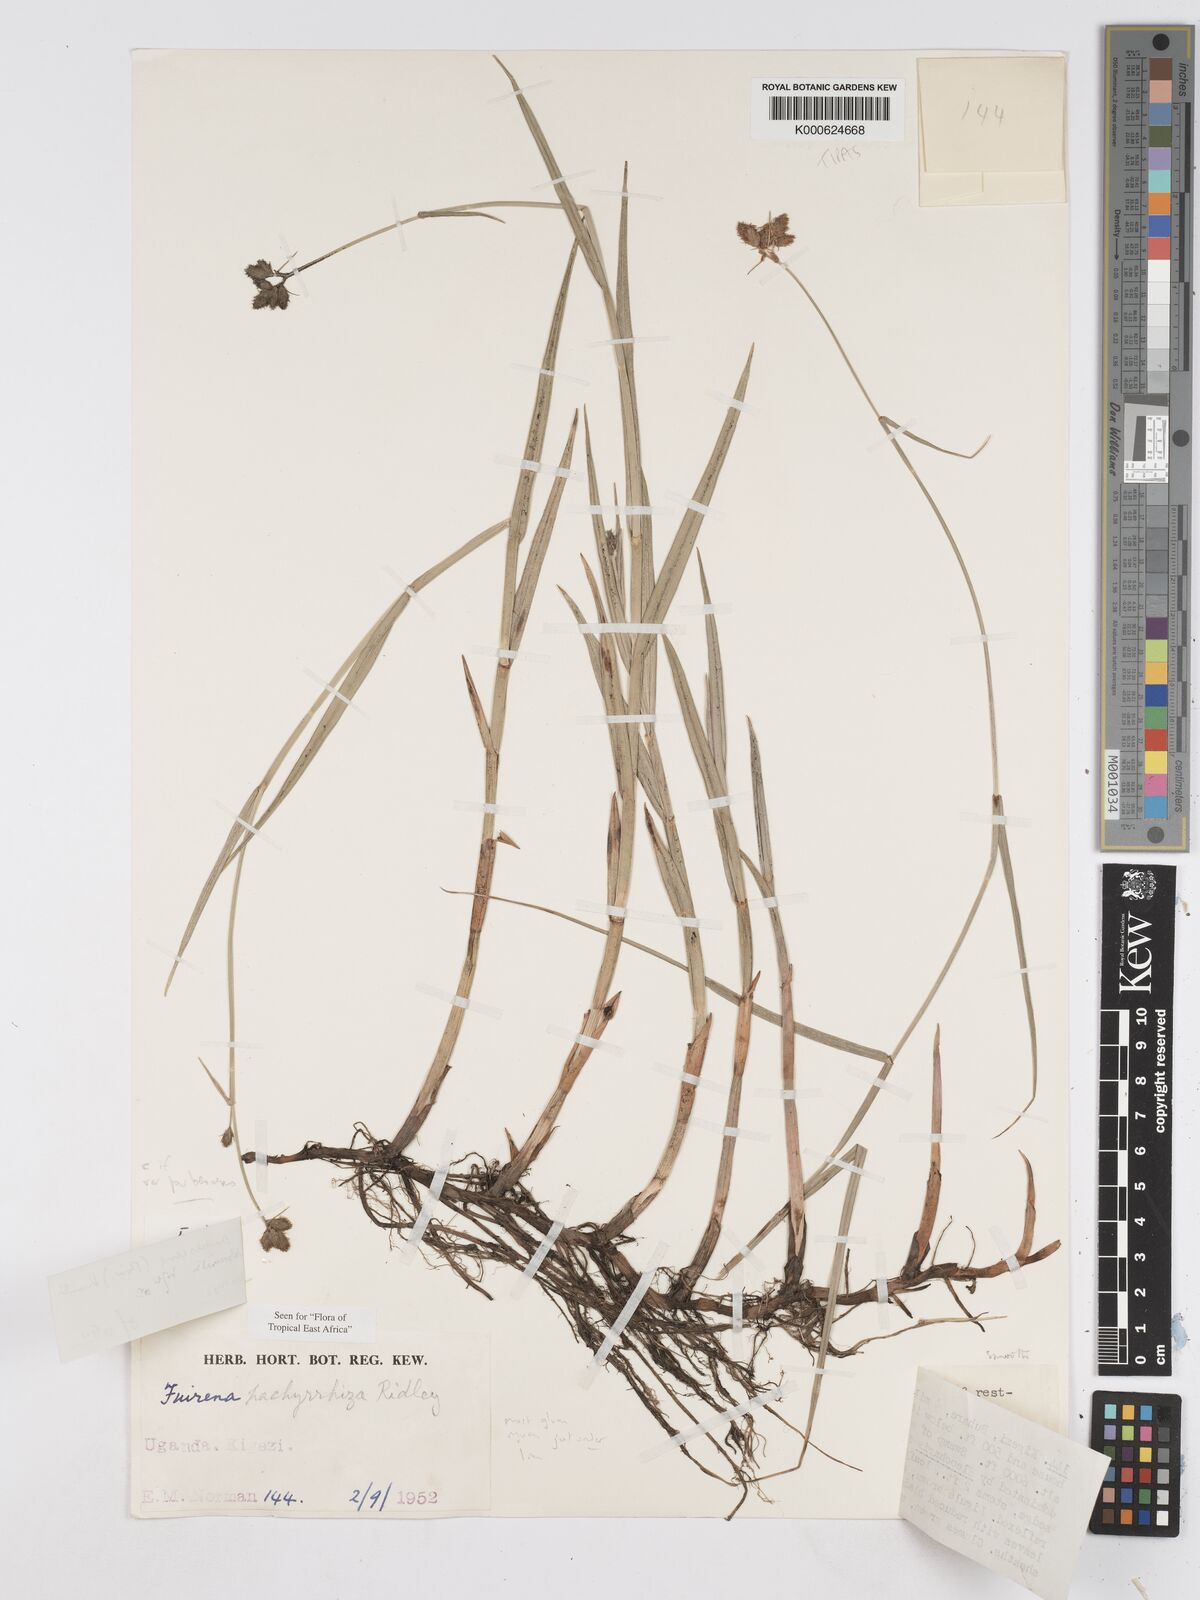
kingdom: Plantae
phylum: Tracheophyta
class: Liliopsida
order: Poales
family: Cyperaceae
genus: Fuirena
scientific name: Fuirena pubescens
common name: Hairy sedge
